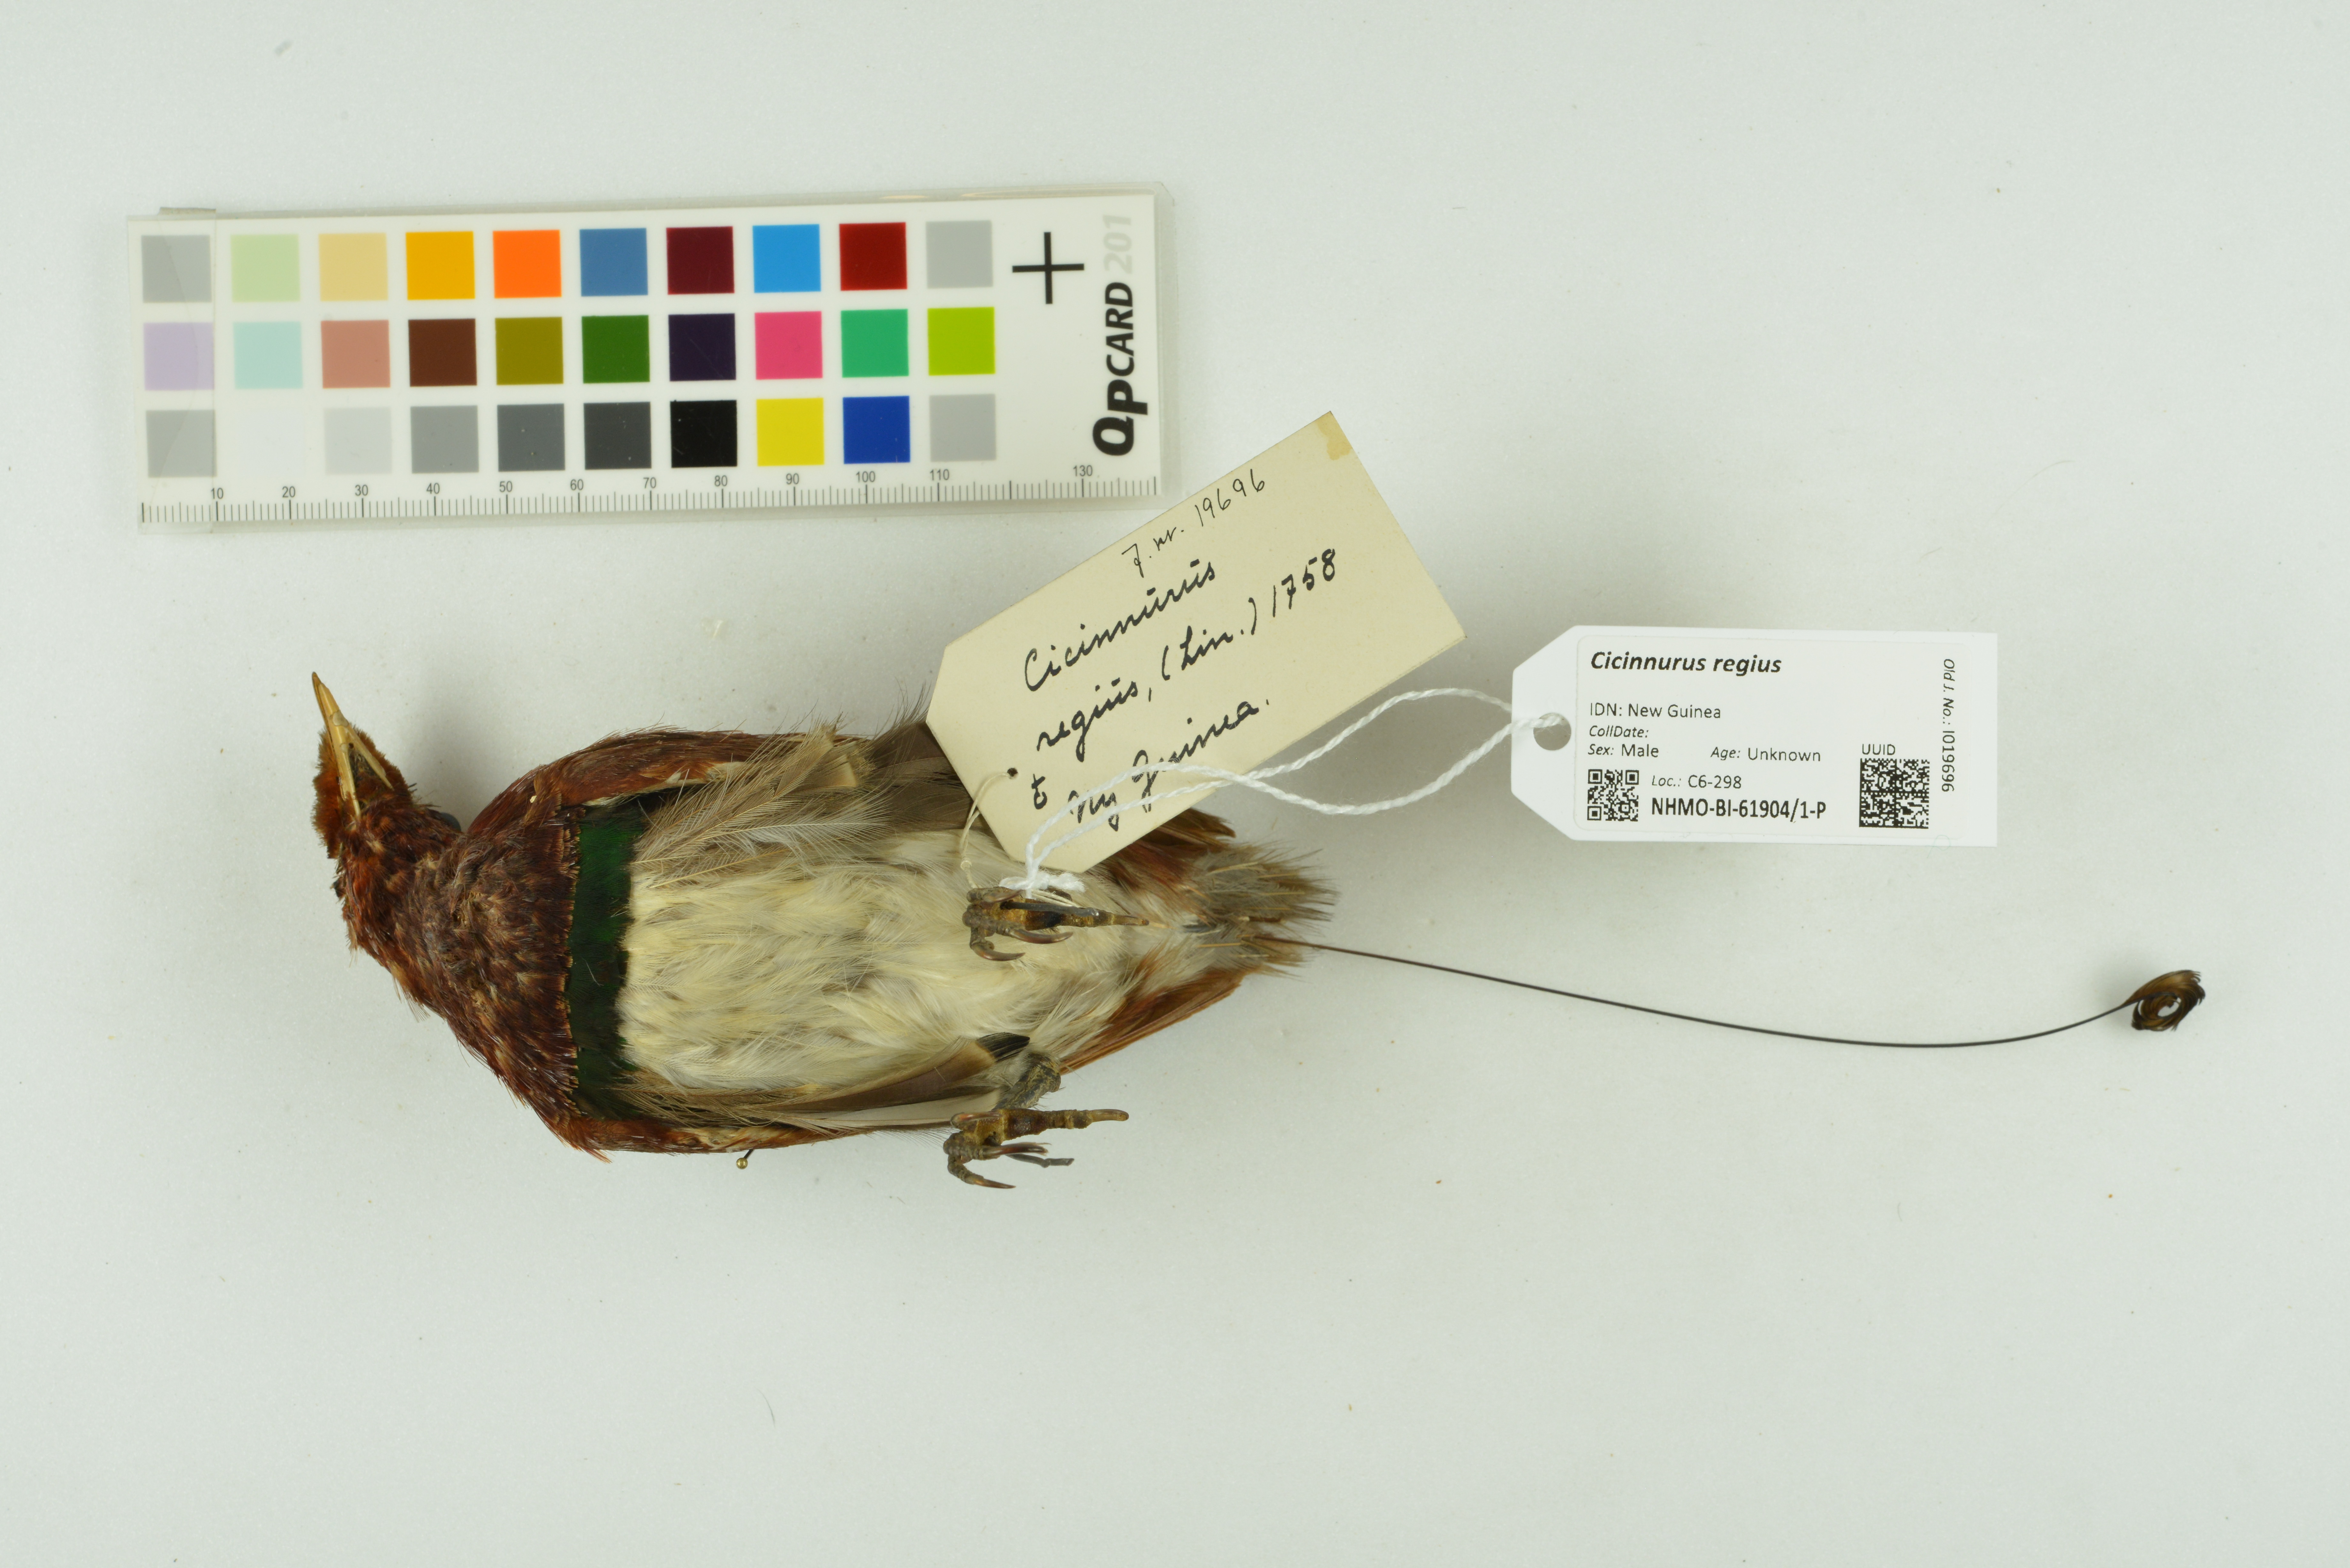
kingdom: Animalia
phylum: Chordata
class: Aves
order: Passeriformes
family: Paradisaeidae
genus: Cicinnurus
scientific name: Cicinnurus regius
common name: King bird-of-paradise
